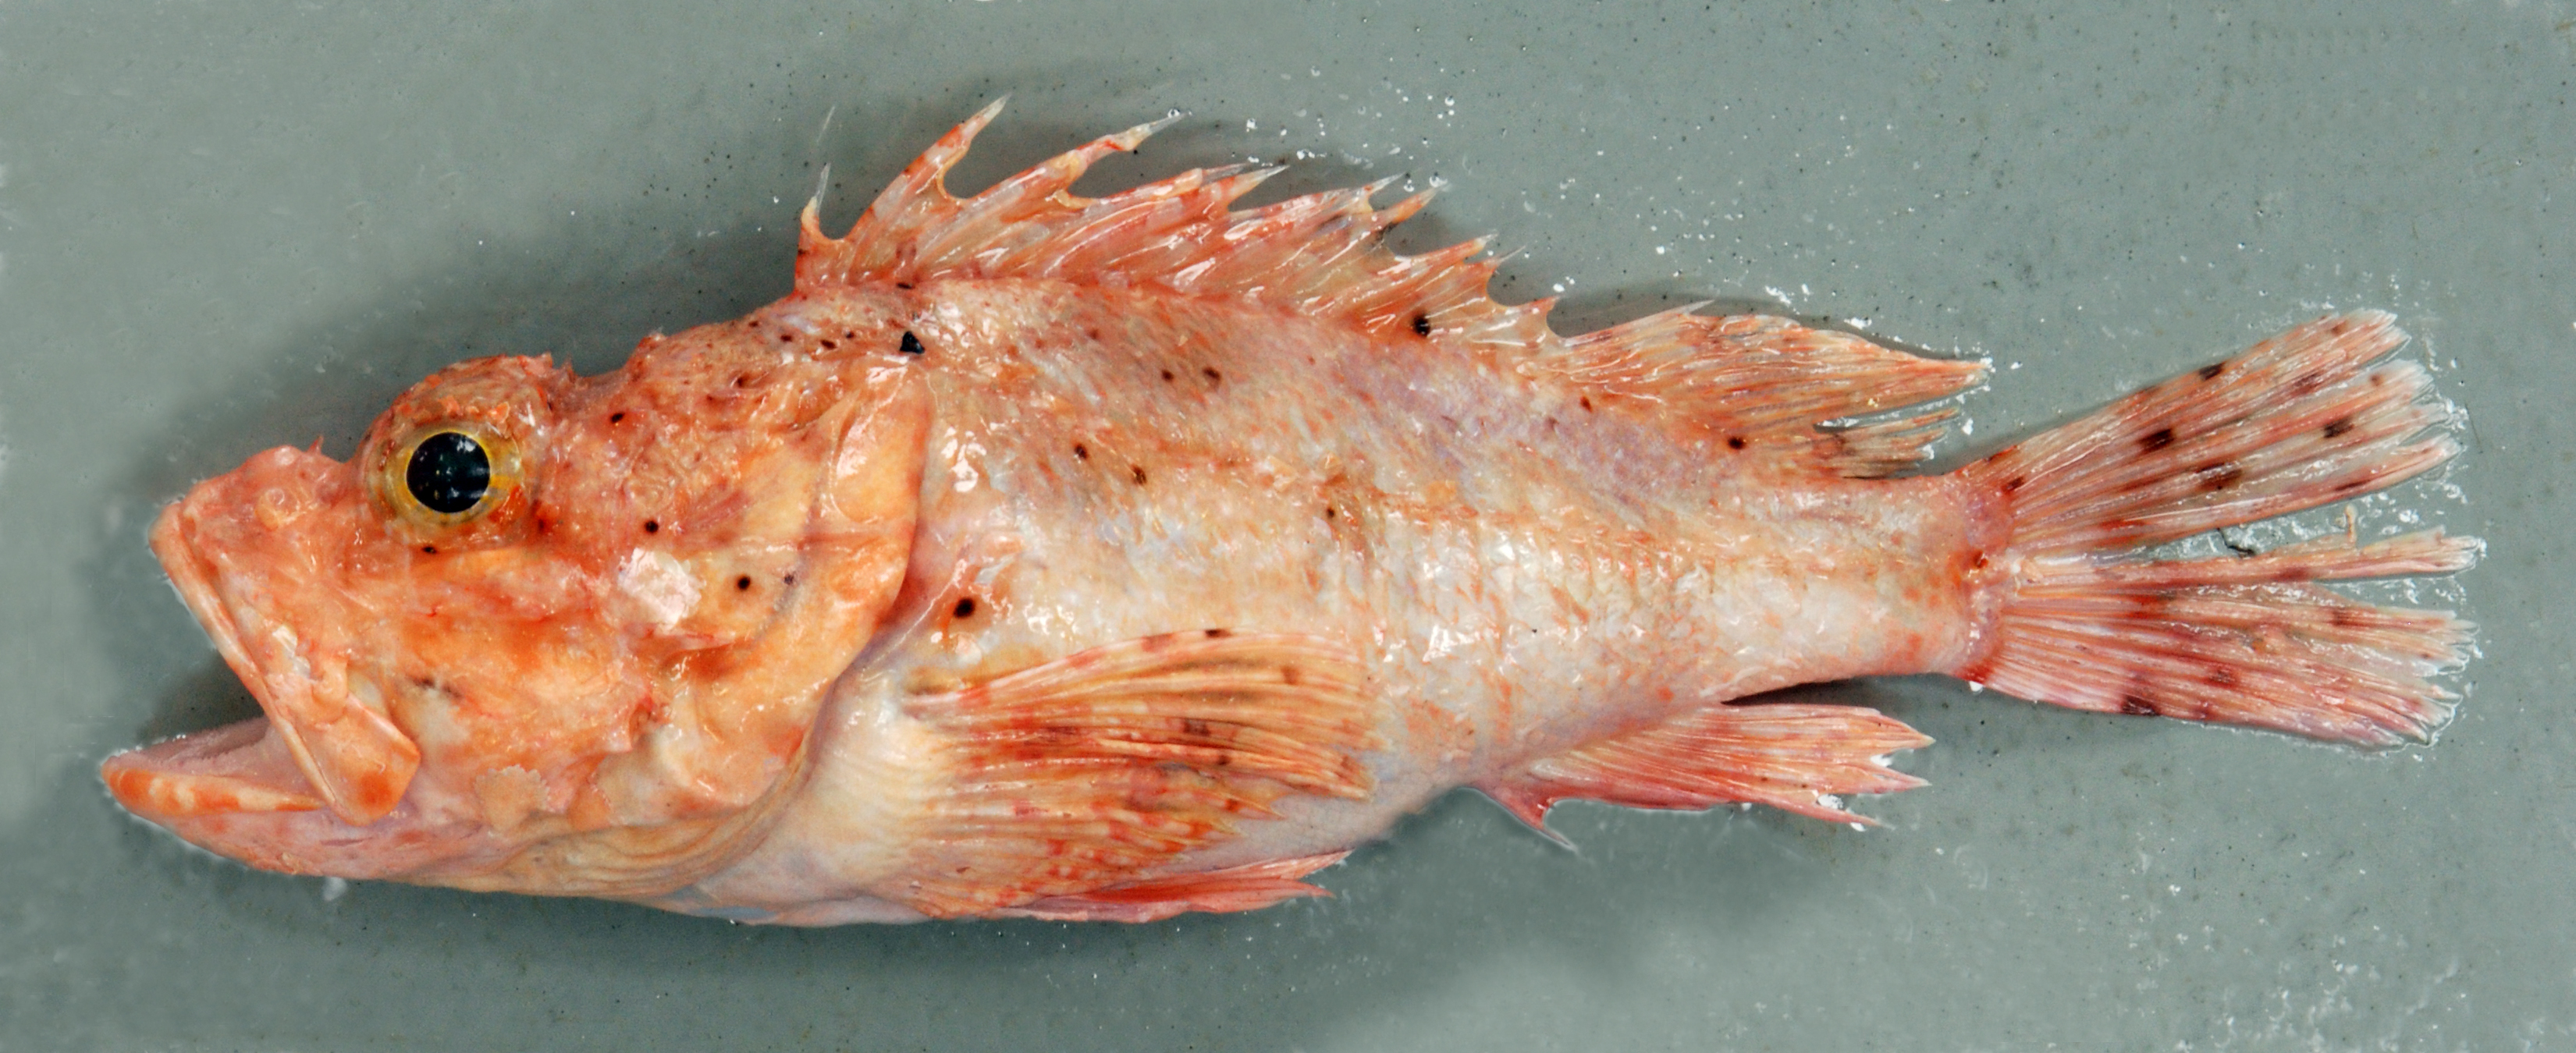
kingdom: Animalia
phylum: Chordata
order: Scorpaeniformes
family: Scorpaenidae
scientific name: Scorpaenidae
